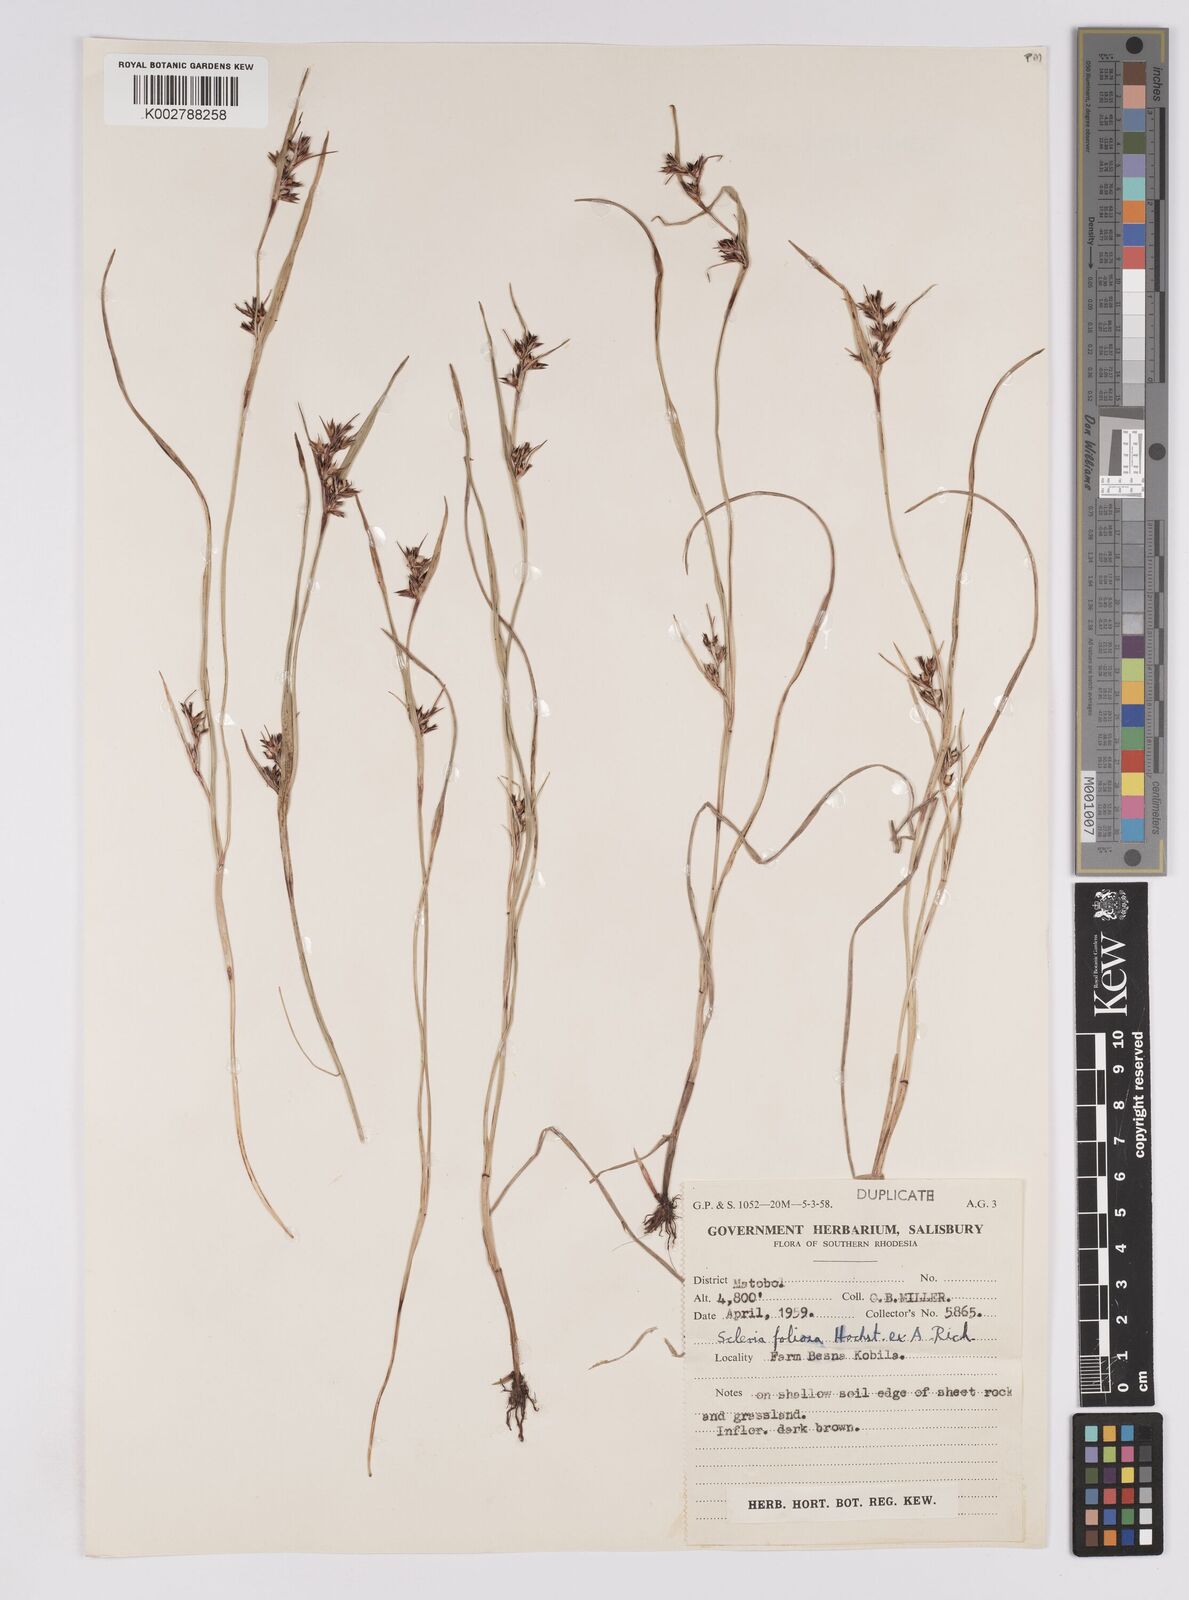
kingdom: Plantae
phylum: Tracheophyta
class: Liliopsida
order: Poales
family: Cyperaceae
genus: Scleria
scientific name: Scleria foliosa
